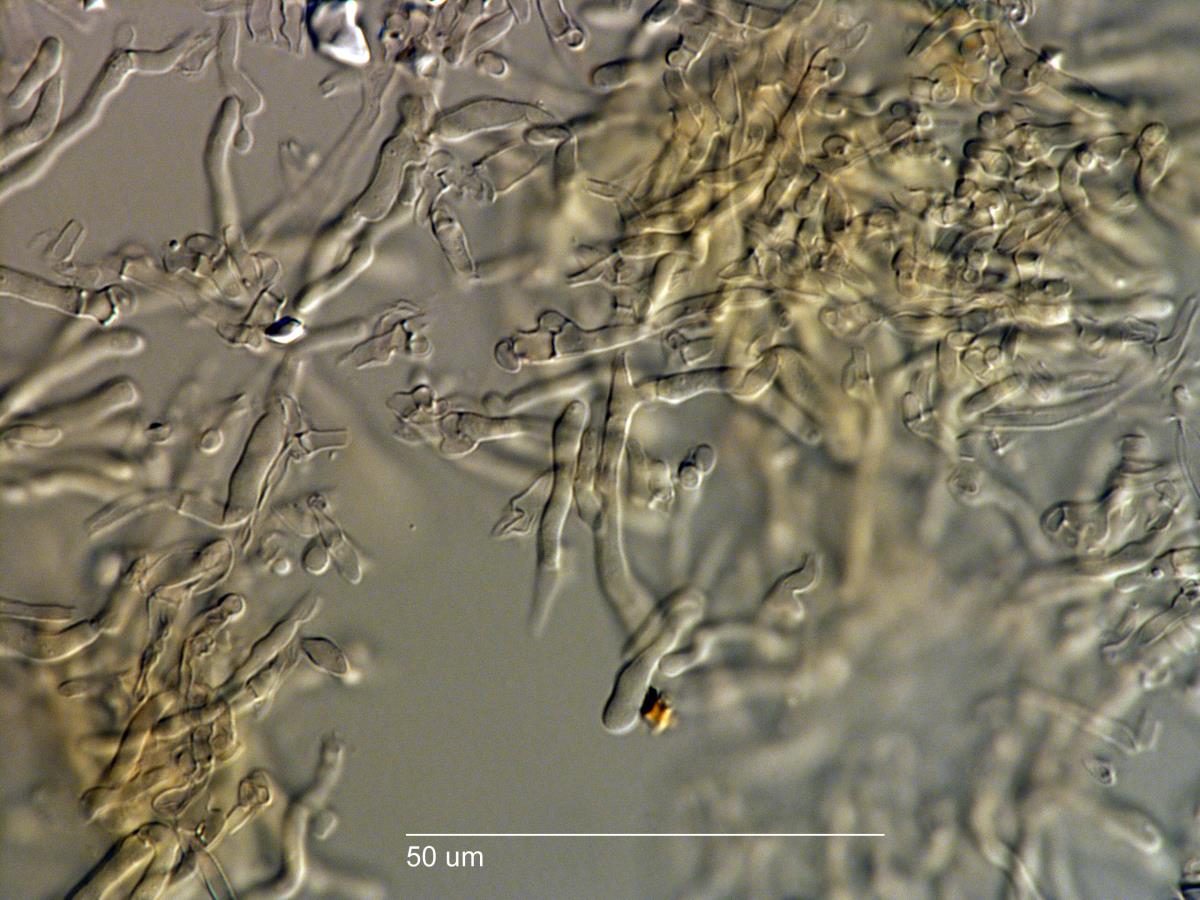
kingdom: Fungi
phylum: Basidiomycota
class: Agaricomycetes
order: Agaricales
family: Clavariaceae
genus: Ramariopsis
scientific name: Ramariopsis
